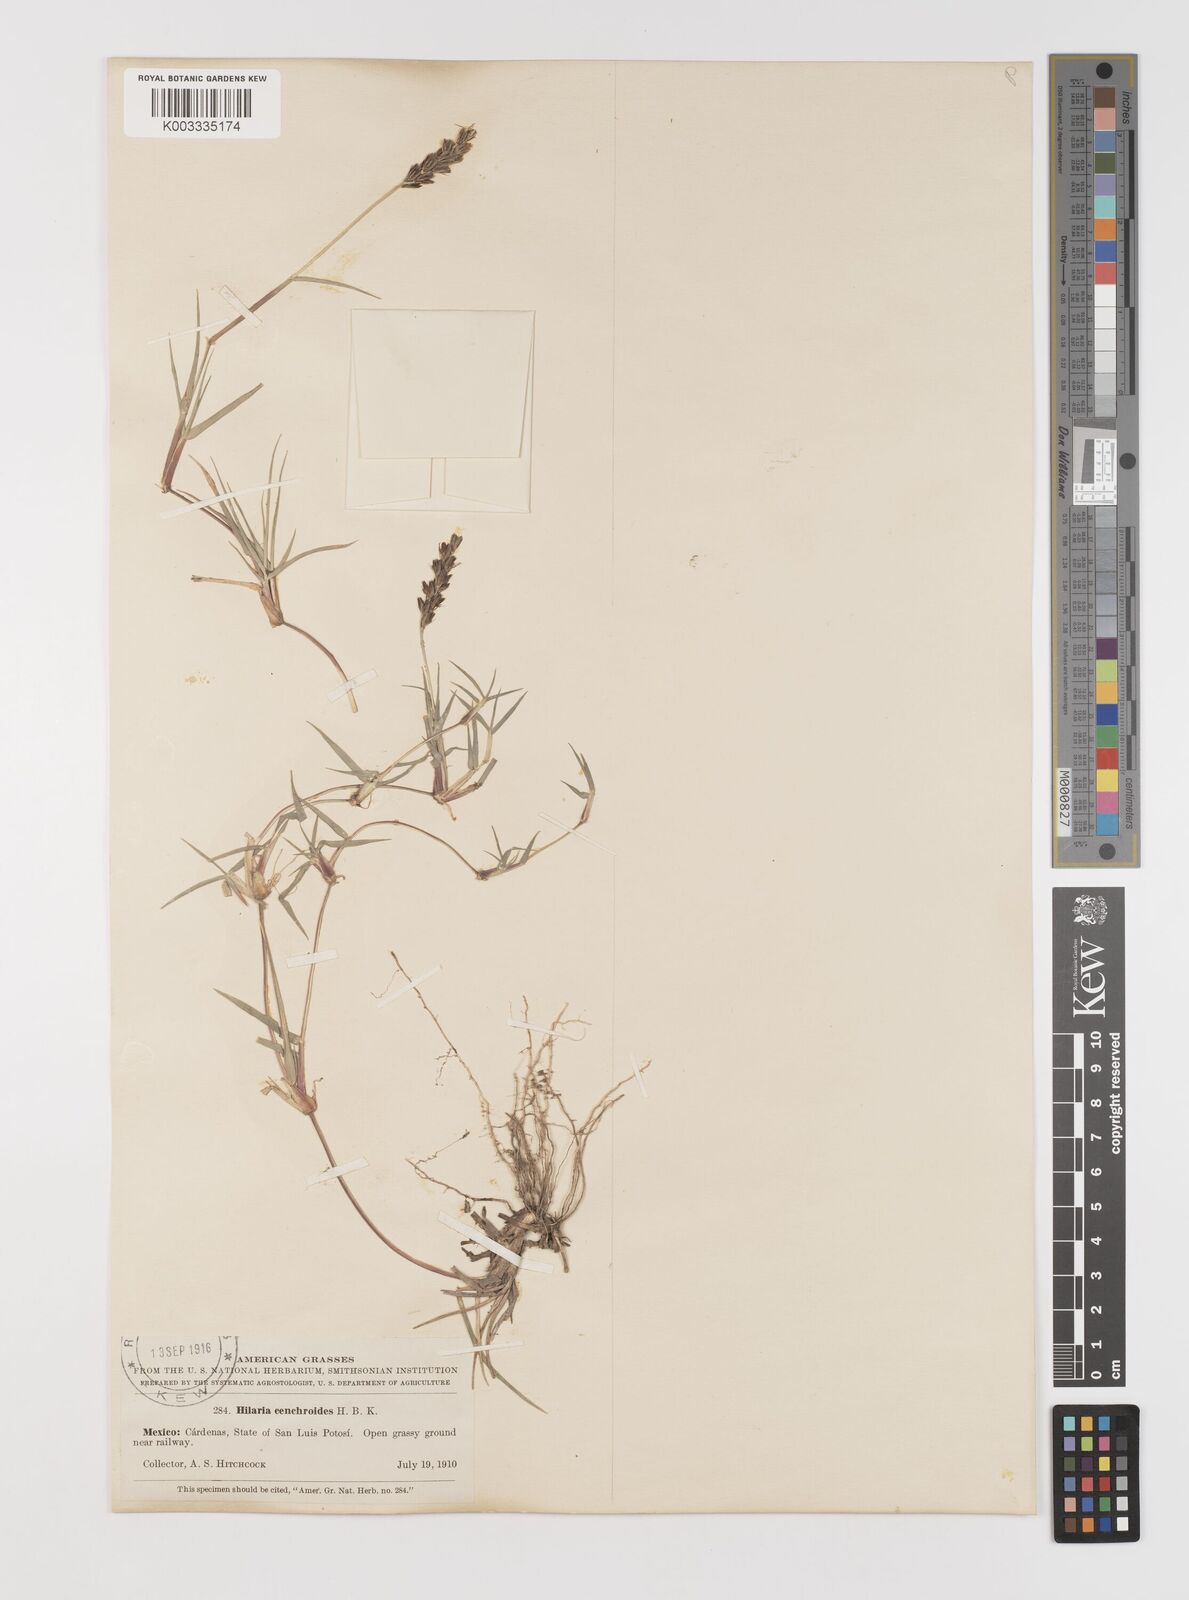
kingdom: Plantae
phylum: Tracheophyta
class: Liliopsida
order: Poales
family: Poaceae
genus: Hilaria
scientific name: Hilaria cenchroides
